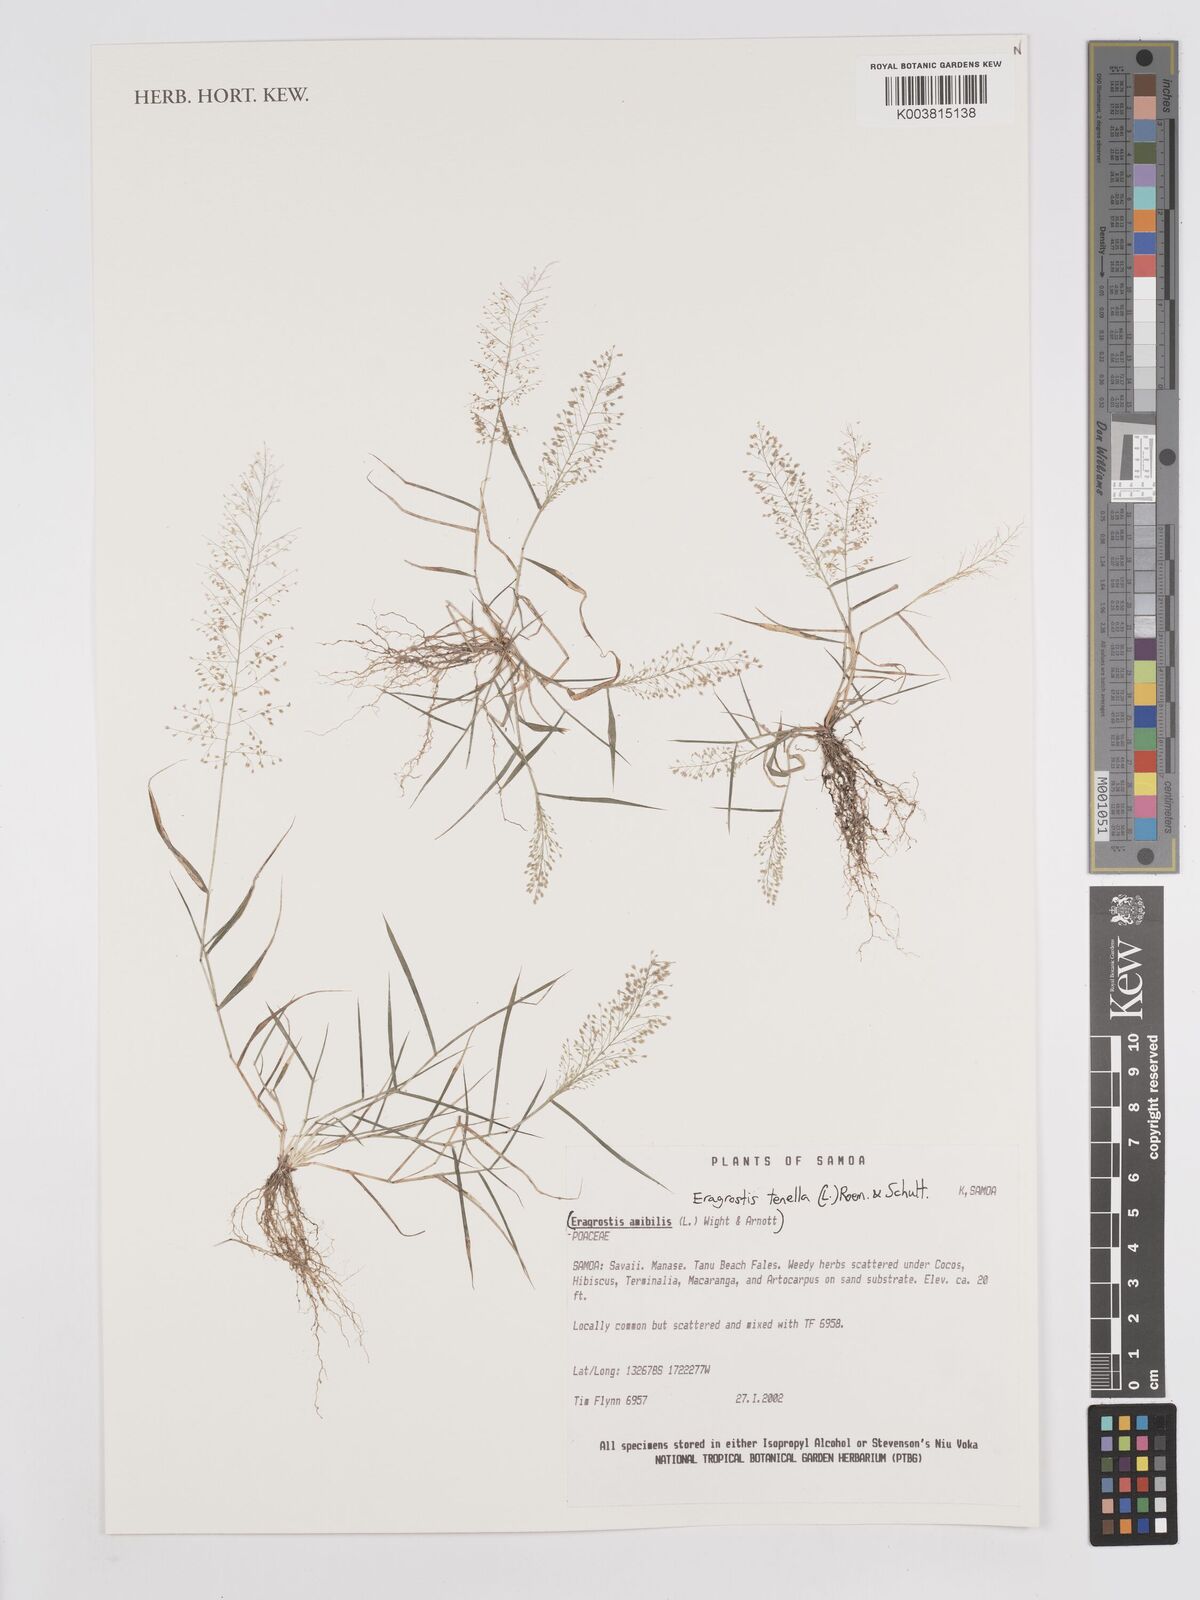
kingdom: Plantae
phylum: Tracheophyta
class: Liliopsida
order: Poales
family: Poaceae
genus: Eragrostis
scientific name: Eragrostis tenella
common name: Japanese lovegrass
